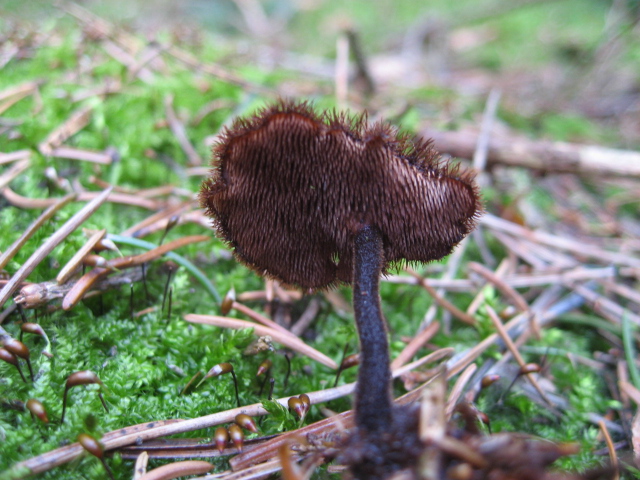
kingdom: Fungi
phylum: Basidiomycota
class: Agaricomycetes
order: Russulales
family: Auriscalpiaceae
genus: Auriscalpium
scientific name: Auriscalpium vulgare
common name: koglepigsvamp
